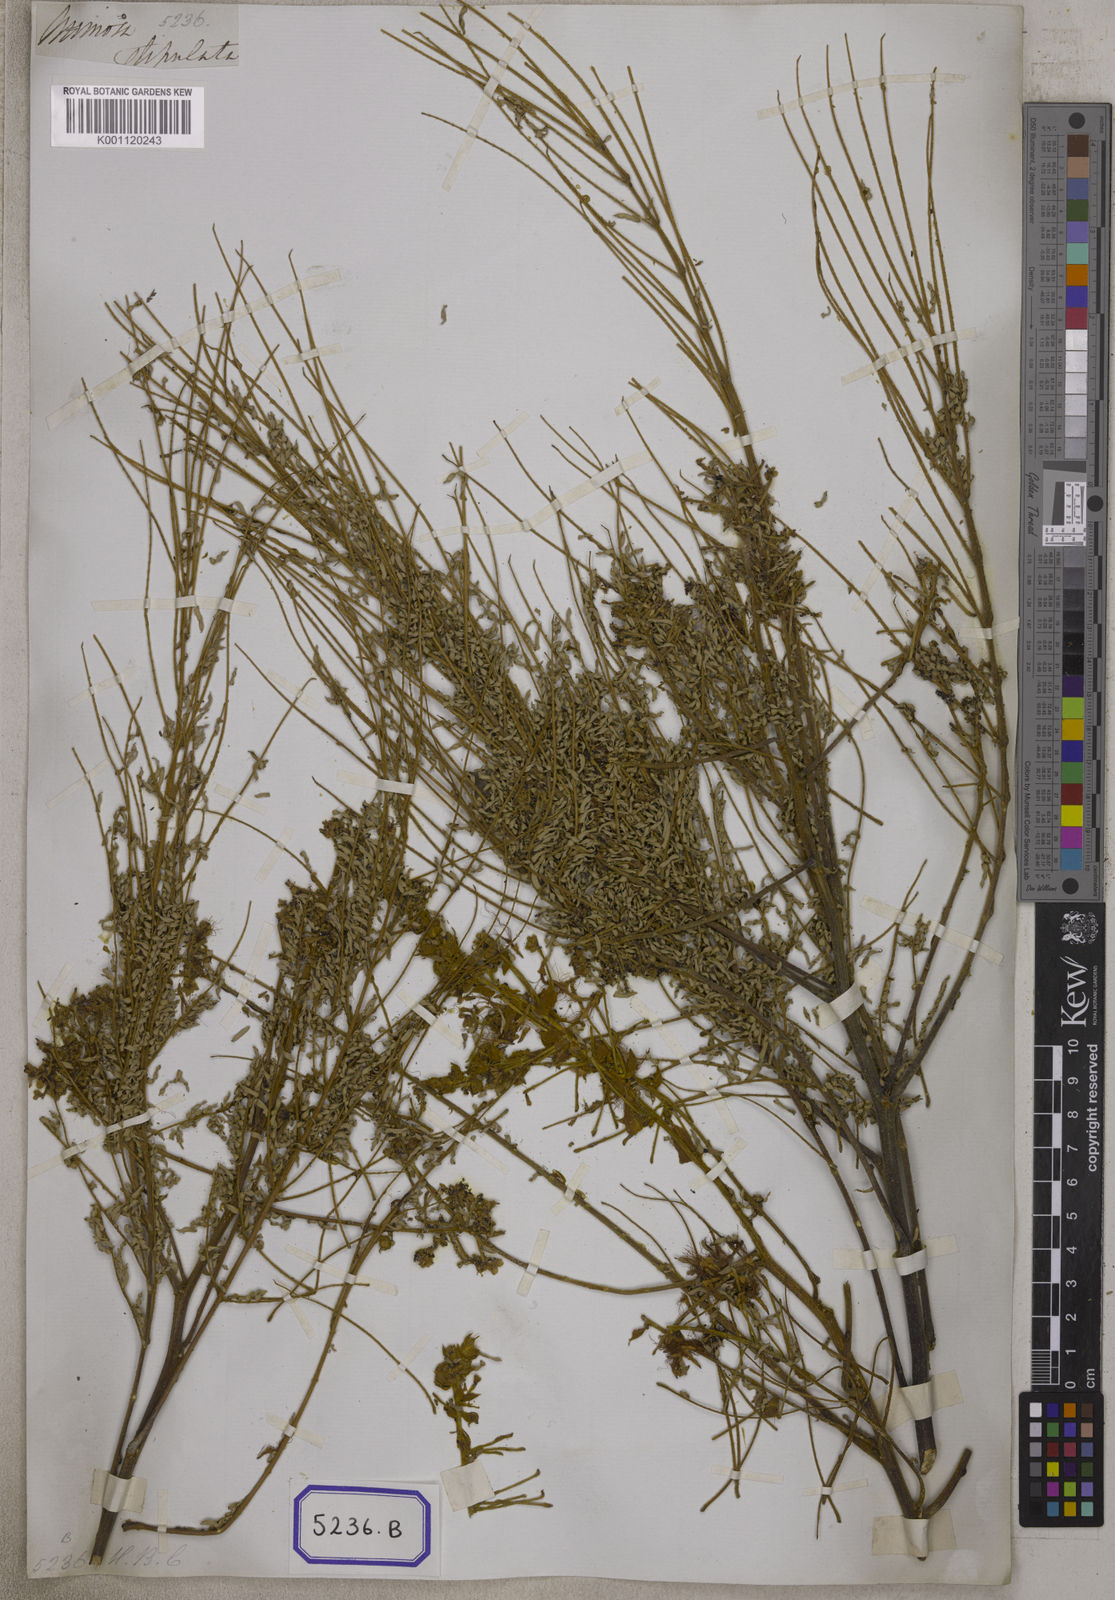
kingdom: Plantae
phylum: Tracheophyta
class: Magnoliopsida
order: Fabales
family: Fabaceae
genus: Albizia
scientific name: Albizia chinensis
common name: Chinese albizia
